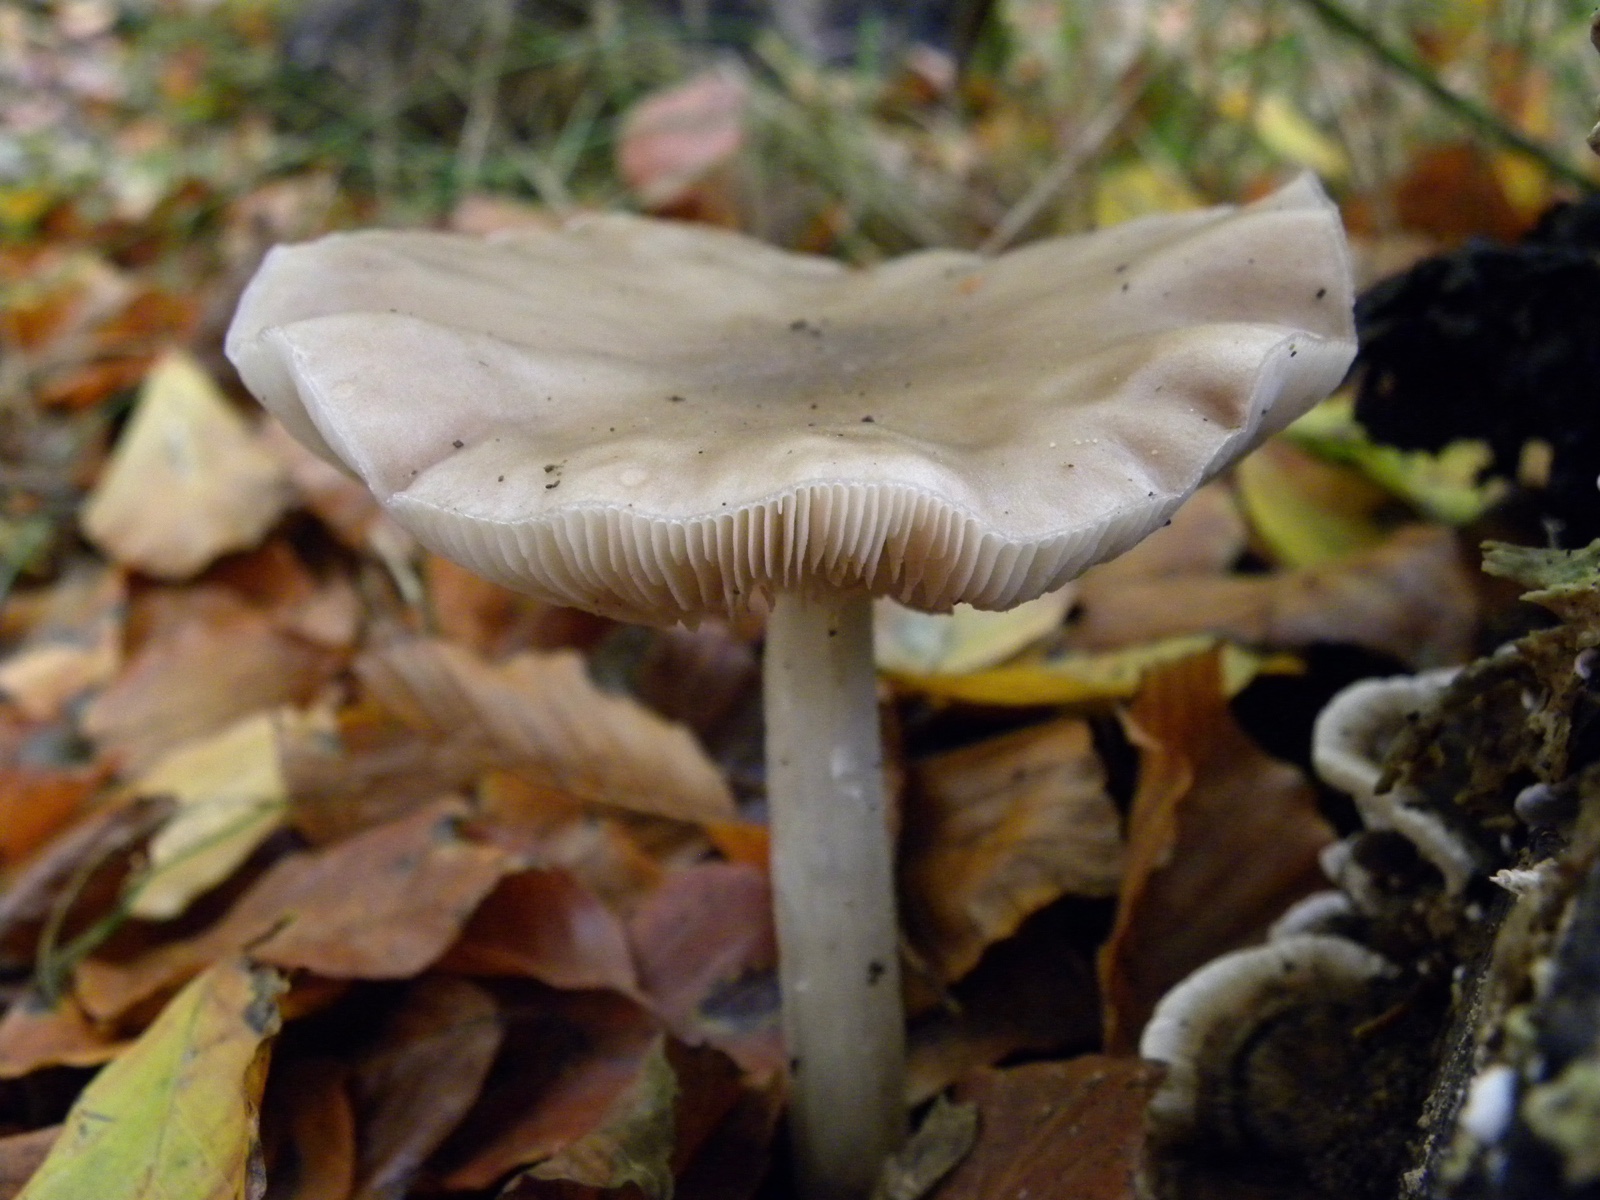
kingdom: Fungi
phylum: Basidiomycota
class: Agaricomycetes
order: Agaricales
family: Entolomataceae
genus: Entoloma
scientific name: Entoloma
